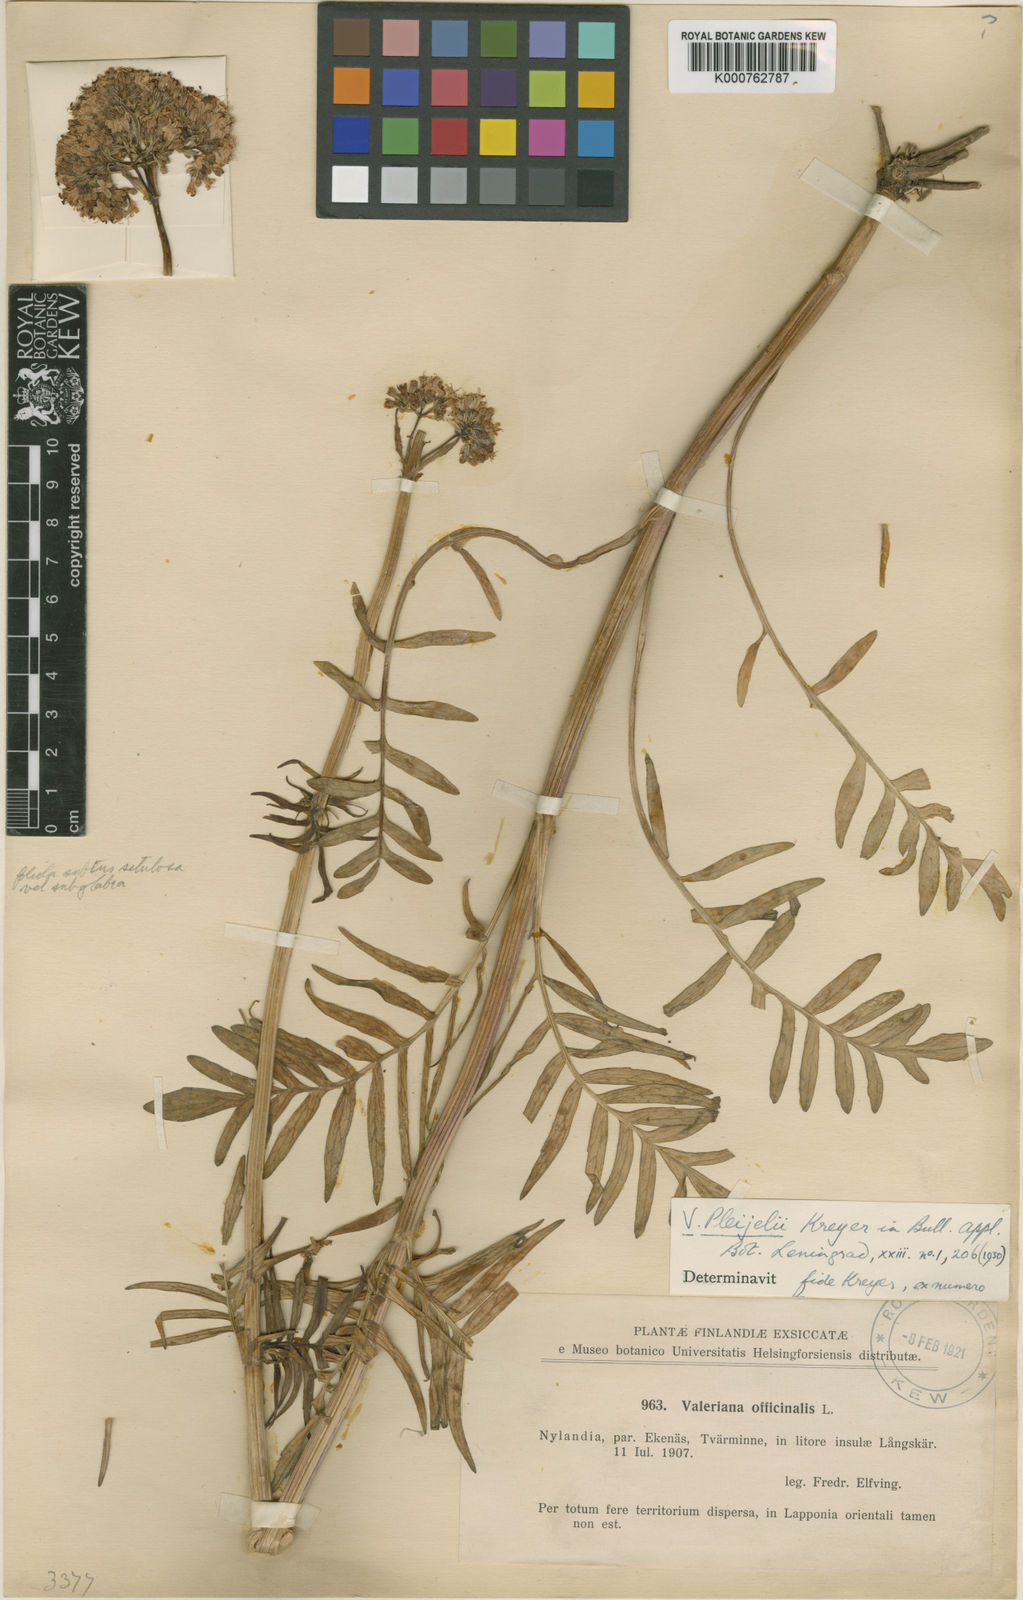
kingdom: Plantae
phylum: Tracheophyta
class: Magnoliopsida
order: Dipsacales
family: Caprifoliaceae
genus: Valeriana
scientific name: Valeriana officinalis
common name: Common valerian
